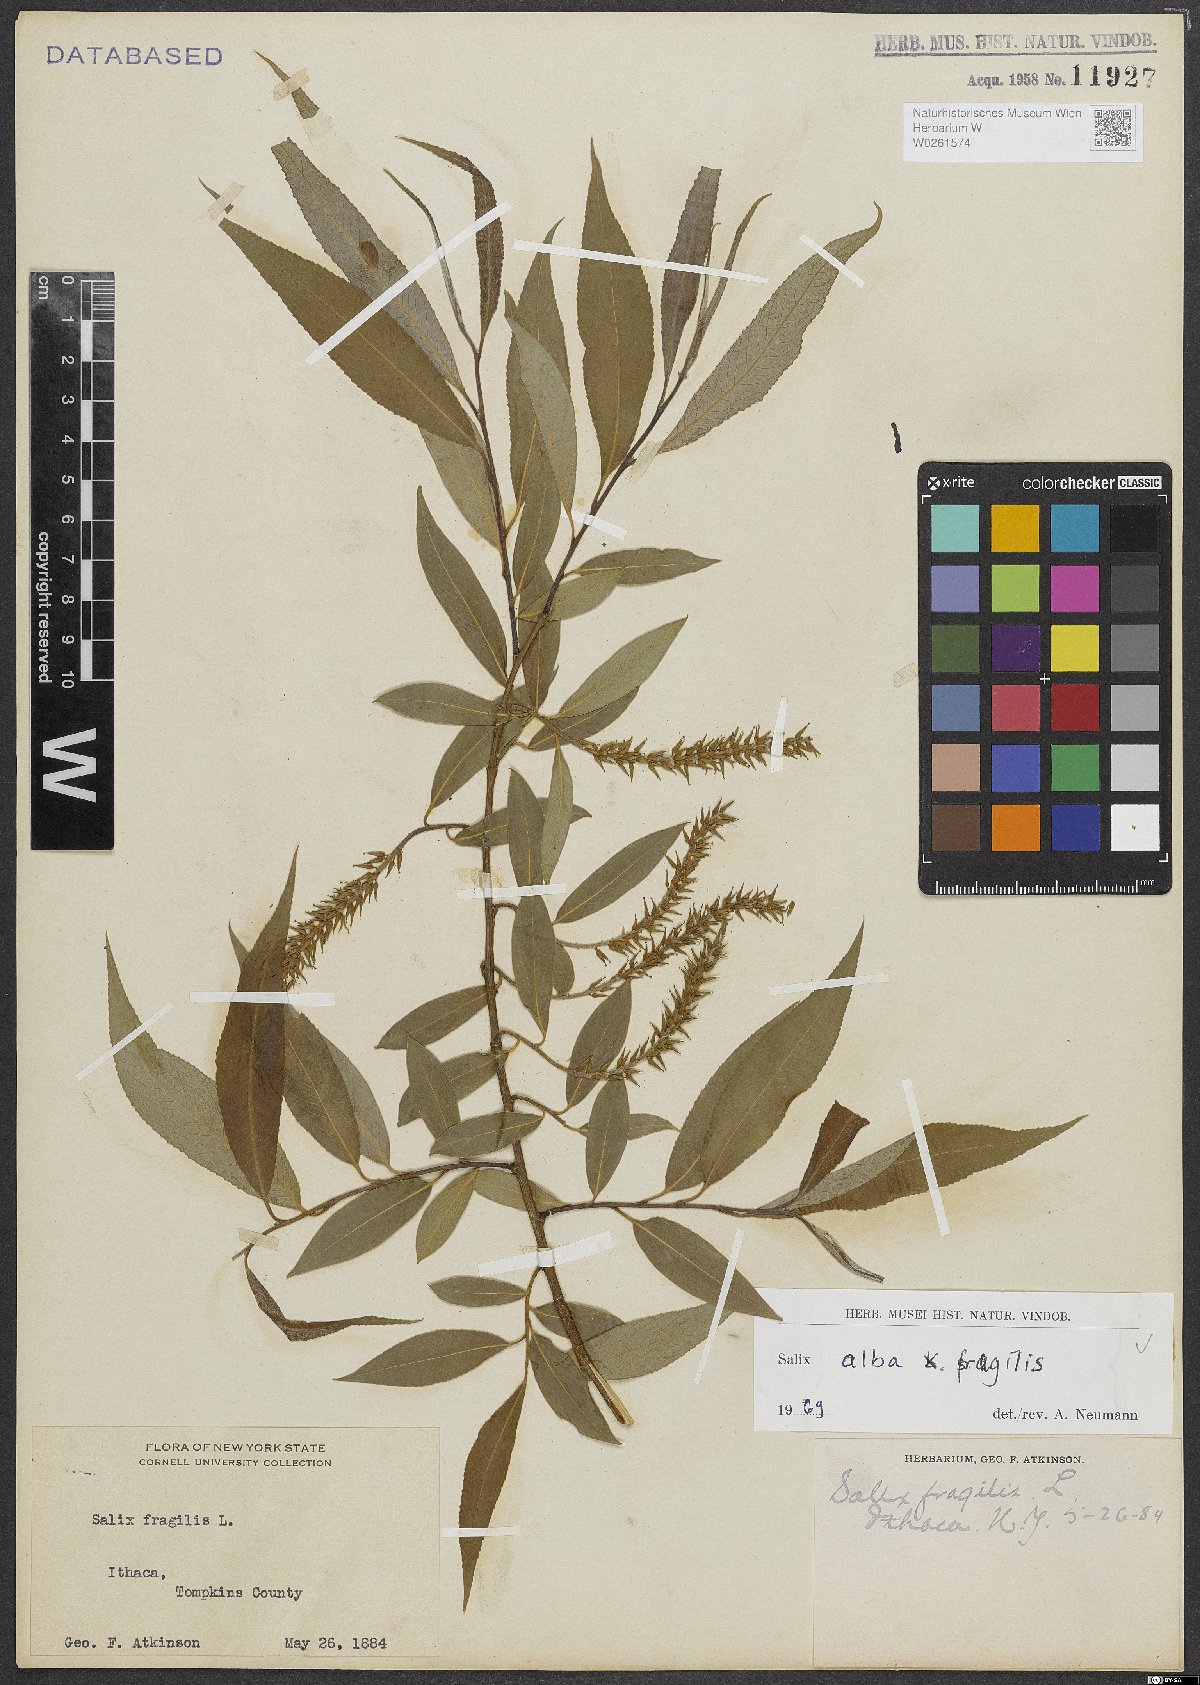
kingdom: Plantae
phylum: Tracheophyta
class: Magnoliopsida
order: Malpighiales
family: Salicaceae
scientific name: Salicaceae
